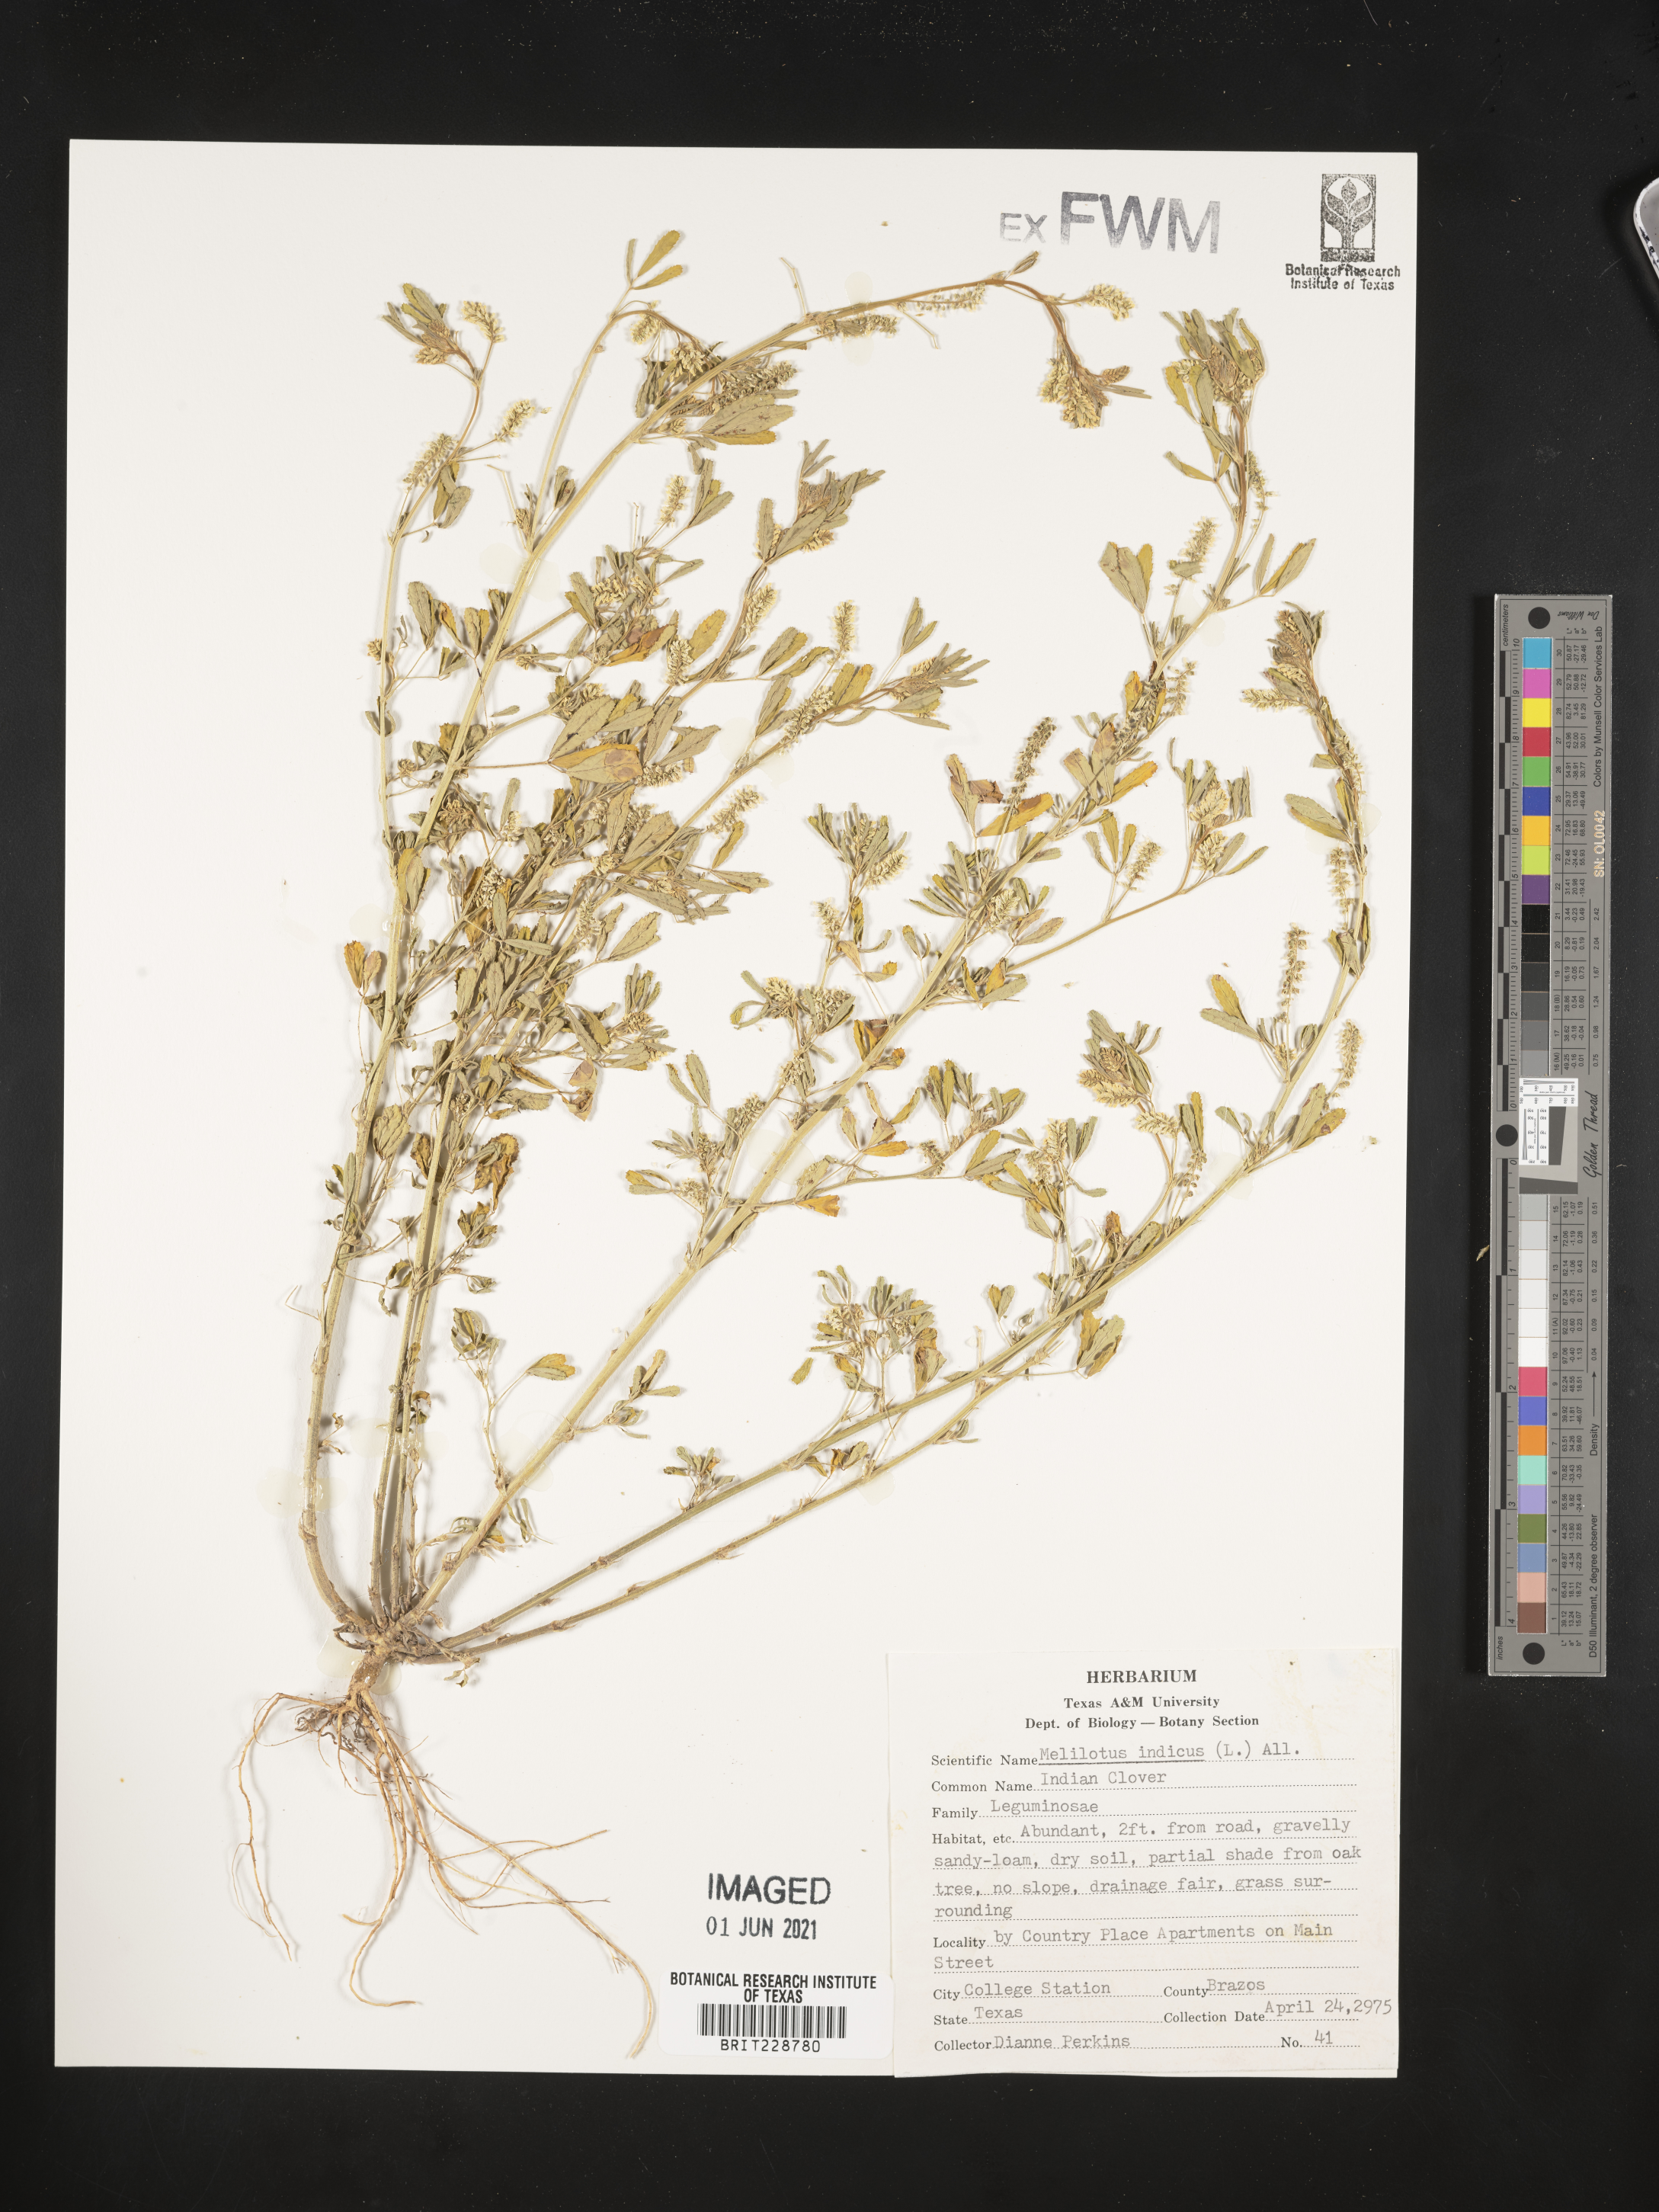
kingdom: Plantae
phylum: Tracheophyta
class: Magnoliopsida
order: Fabales
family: Fabaceae
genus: Melilotus
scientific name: Melilotus indicus
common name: Small melilot
